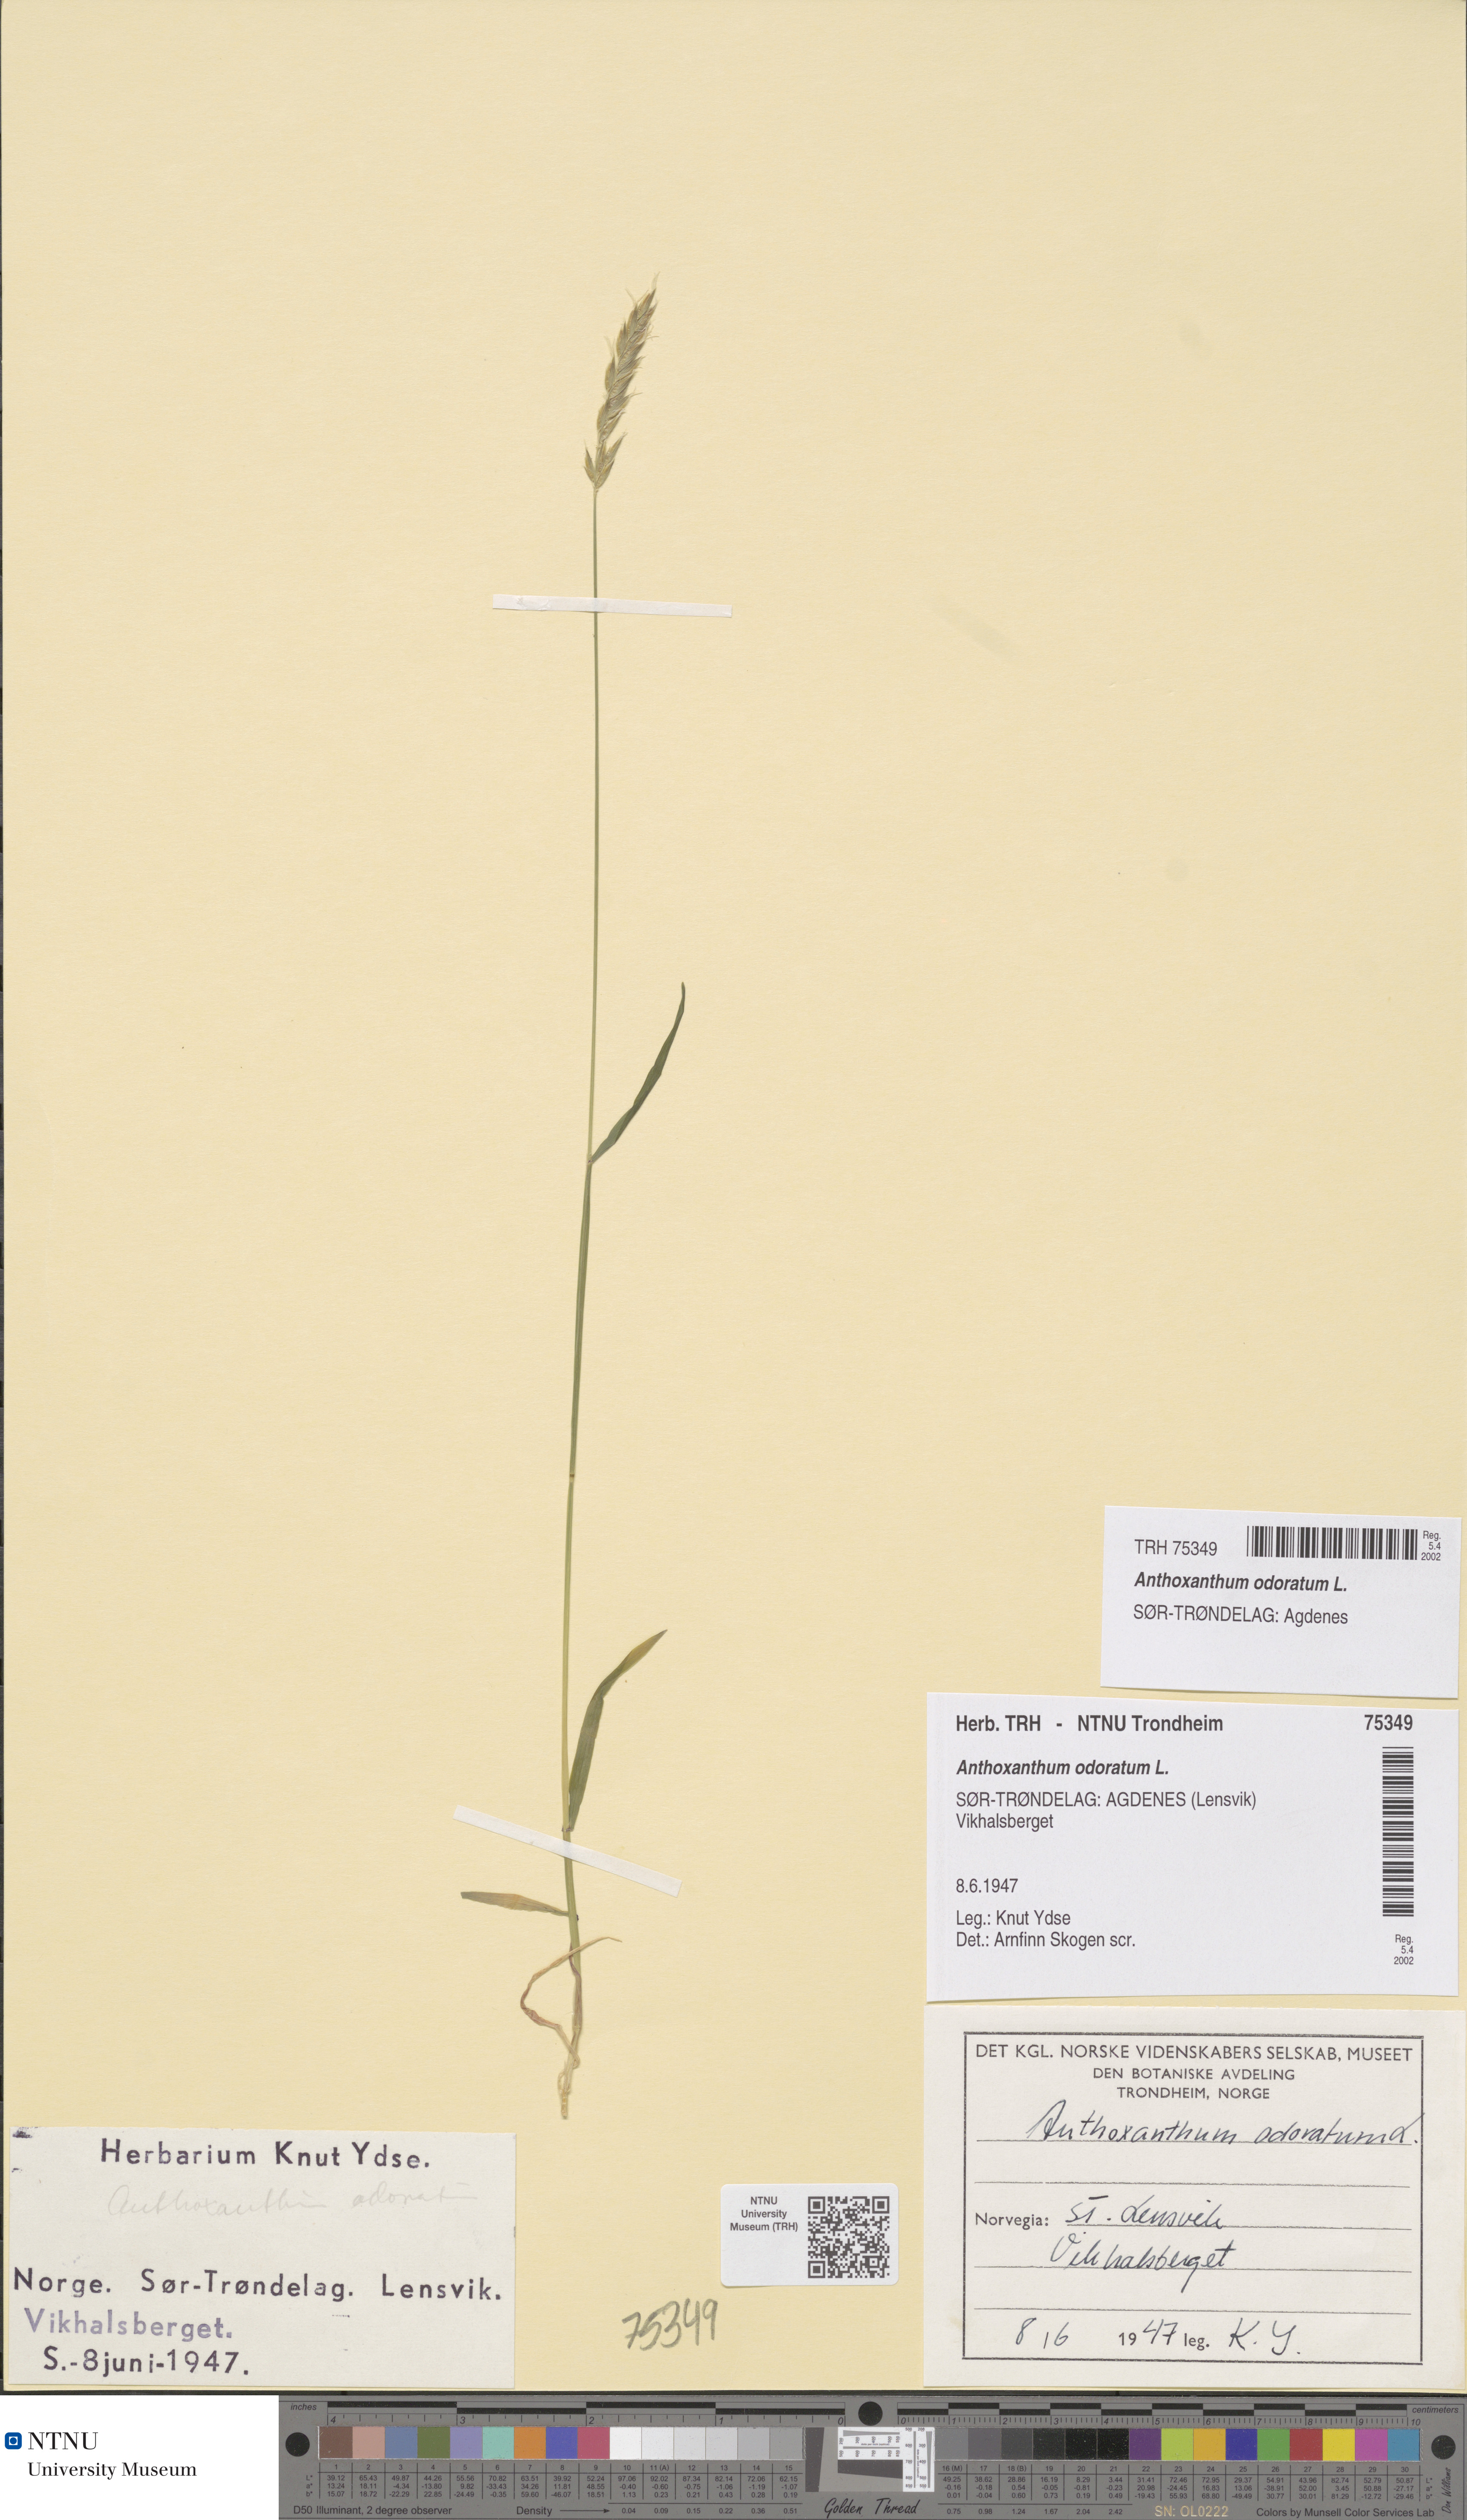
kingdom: Plantae
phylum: Tracheophyta
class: Liliopsida
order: Poales
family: Poaceae
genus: Anthoxanthum
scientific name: Anthoxanthum odoratum
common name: Sweet vernalgrass
